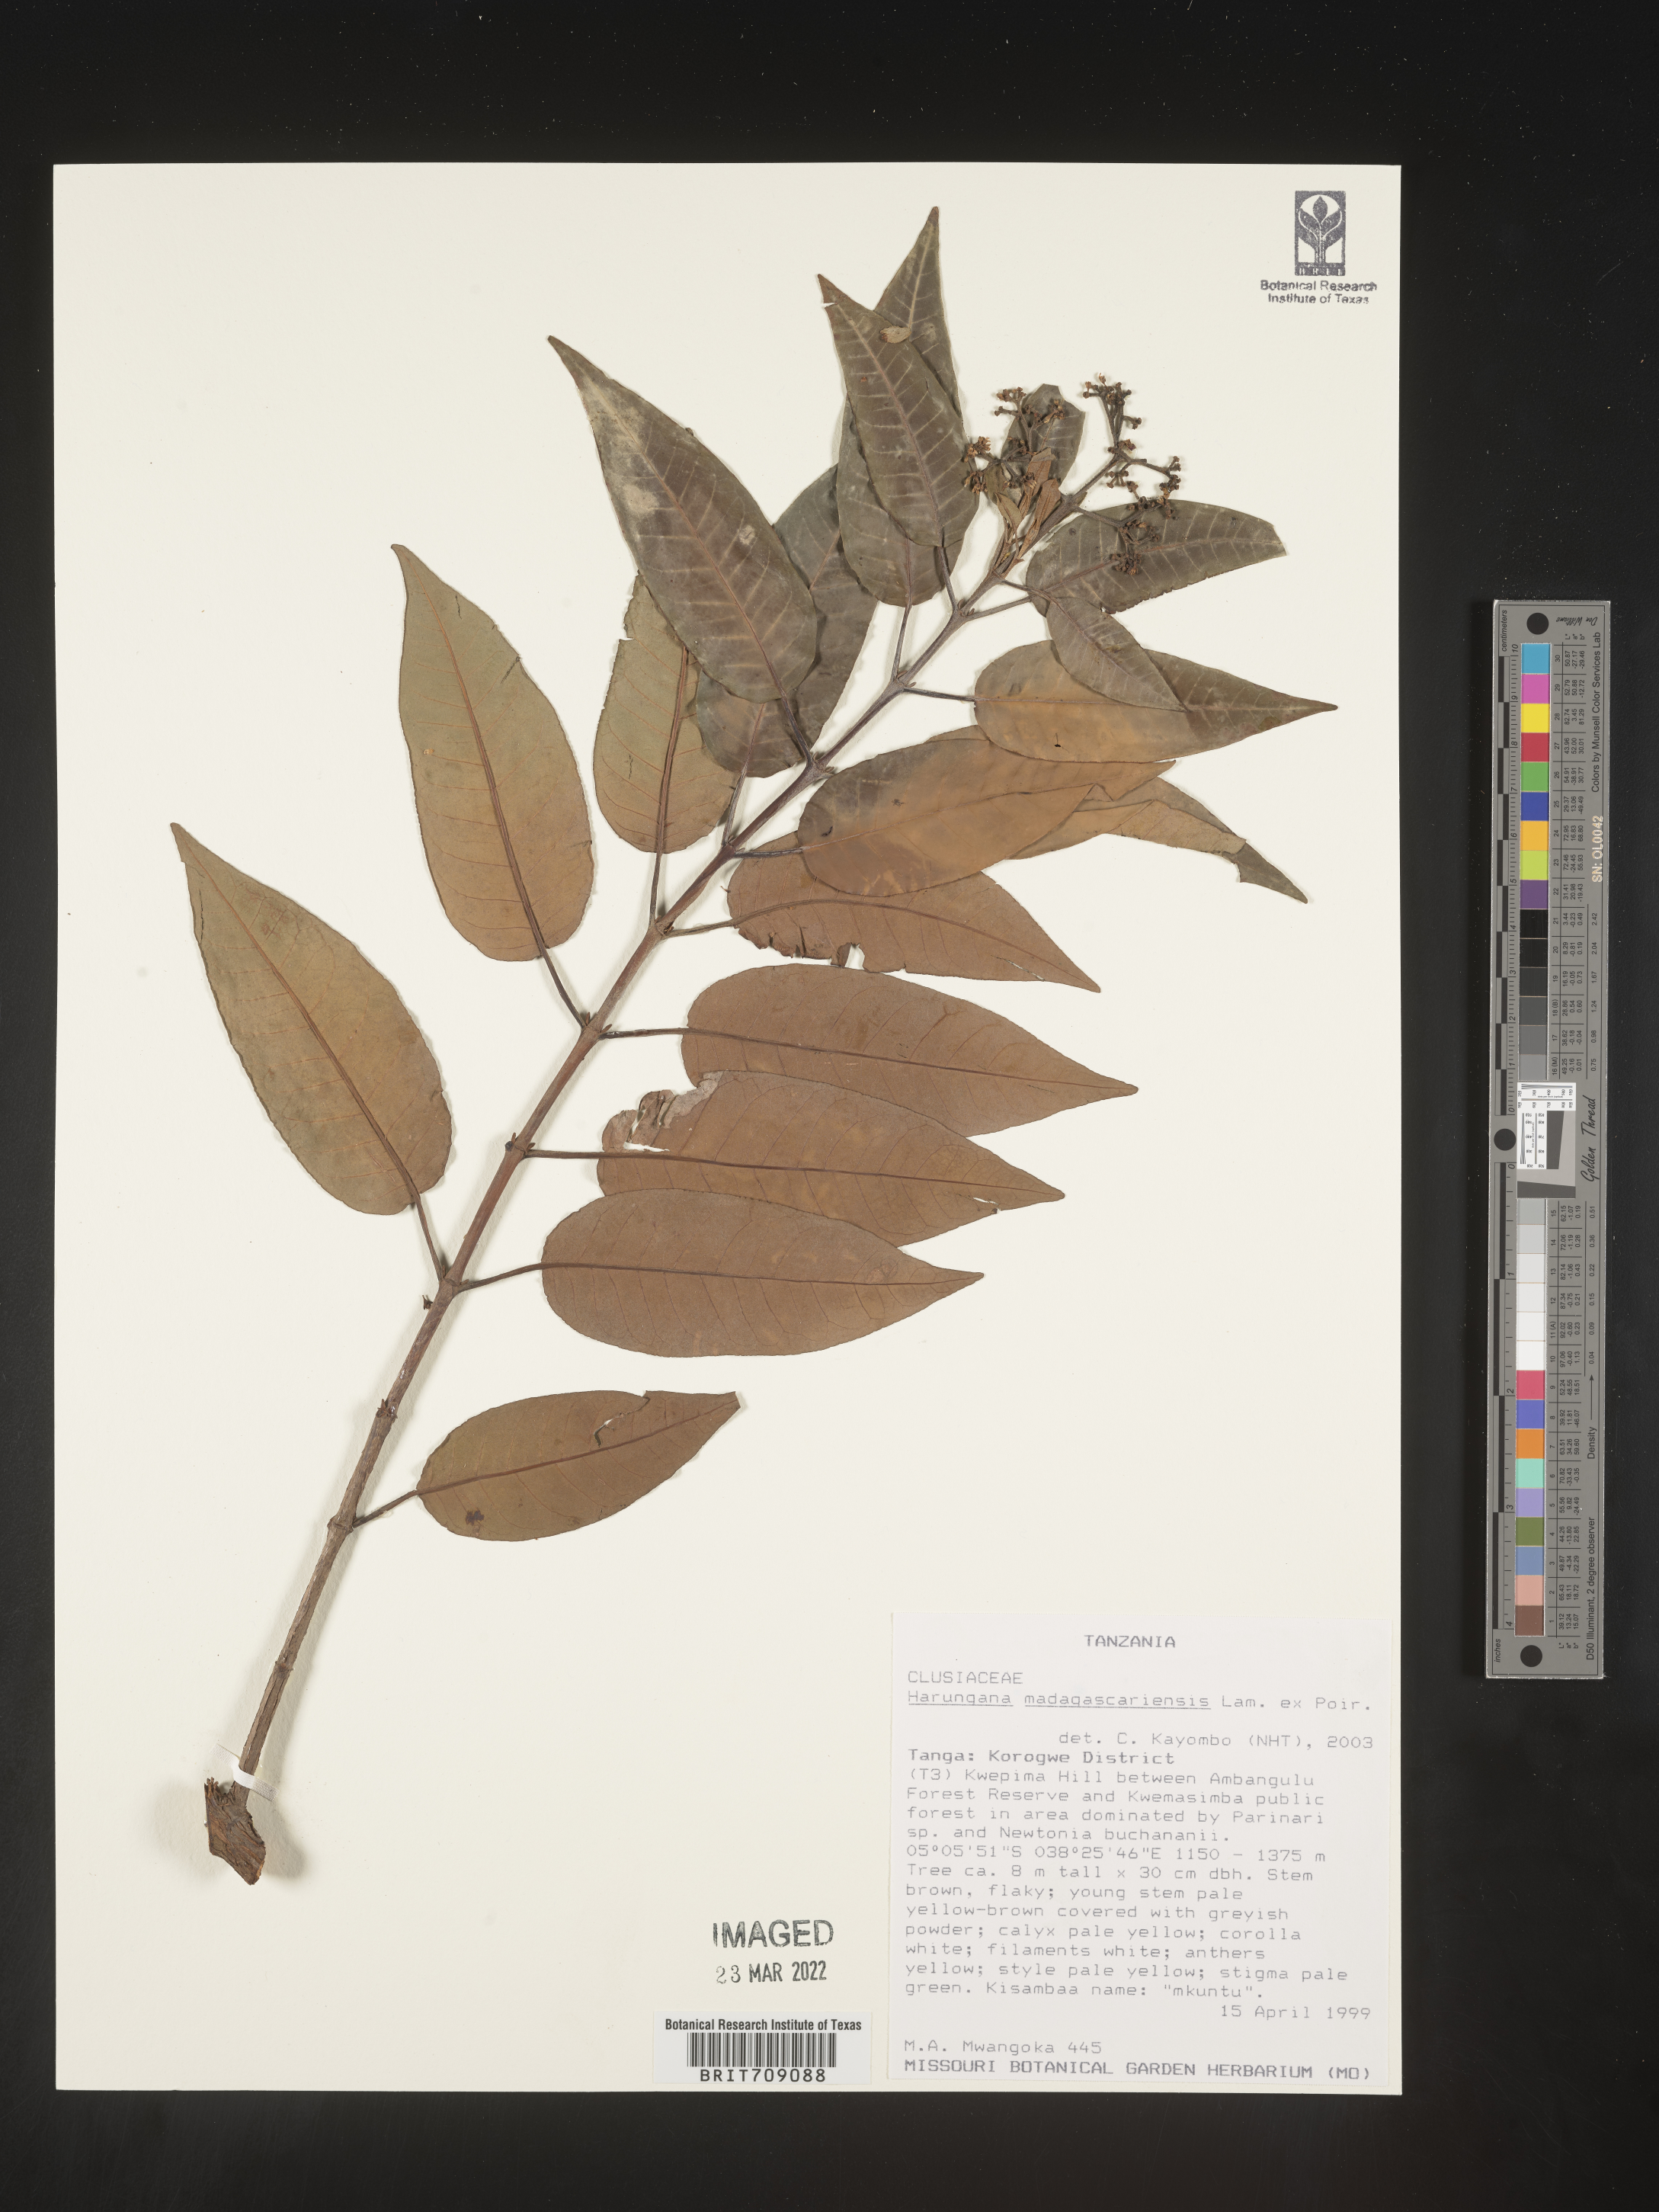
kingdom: Plantae
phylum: Tracheophyta
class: Magnoliopsida
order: Malpighiales
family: Hypericaceae
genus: Harungana
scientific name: Harungana
